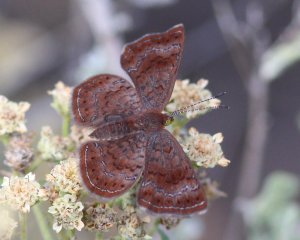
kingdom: Animalia
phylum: Arthropoda
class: Insecta
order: Lepidoptera
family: Lycaenidae
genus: Emesis
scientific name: Emesis rawsoni
